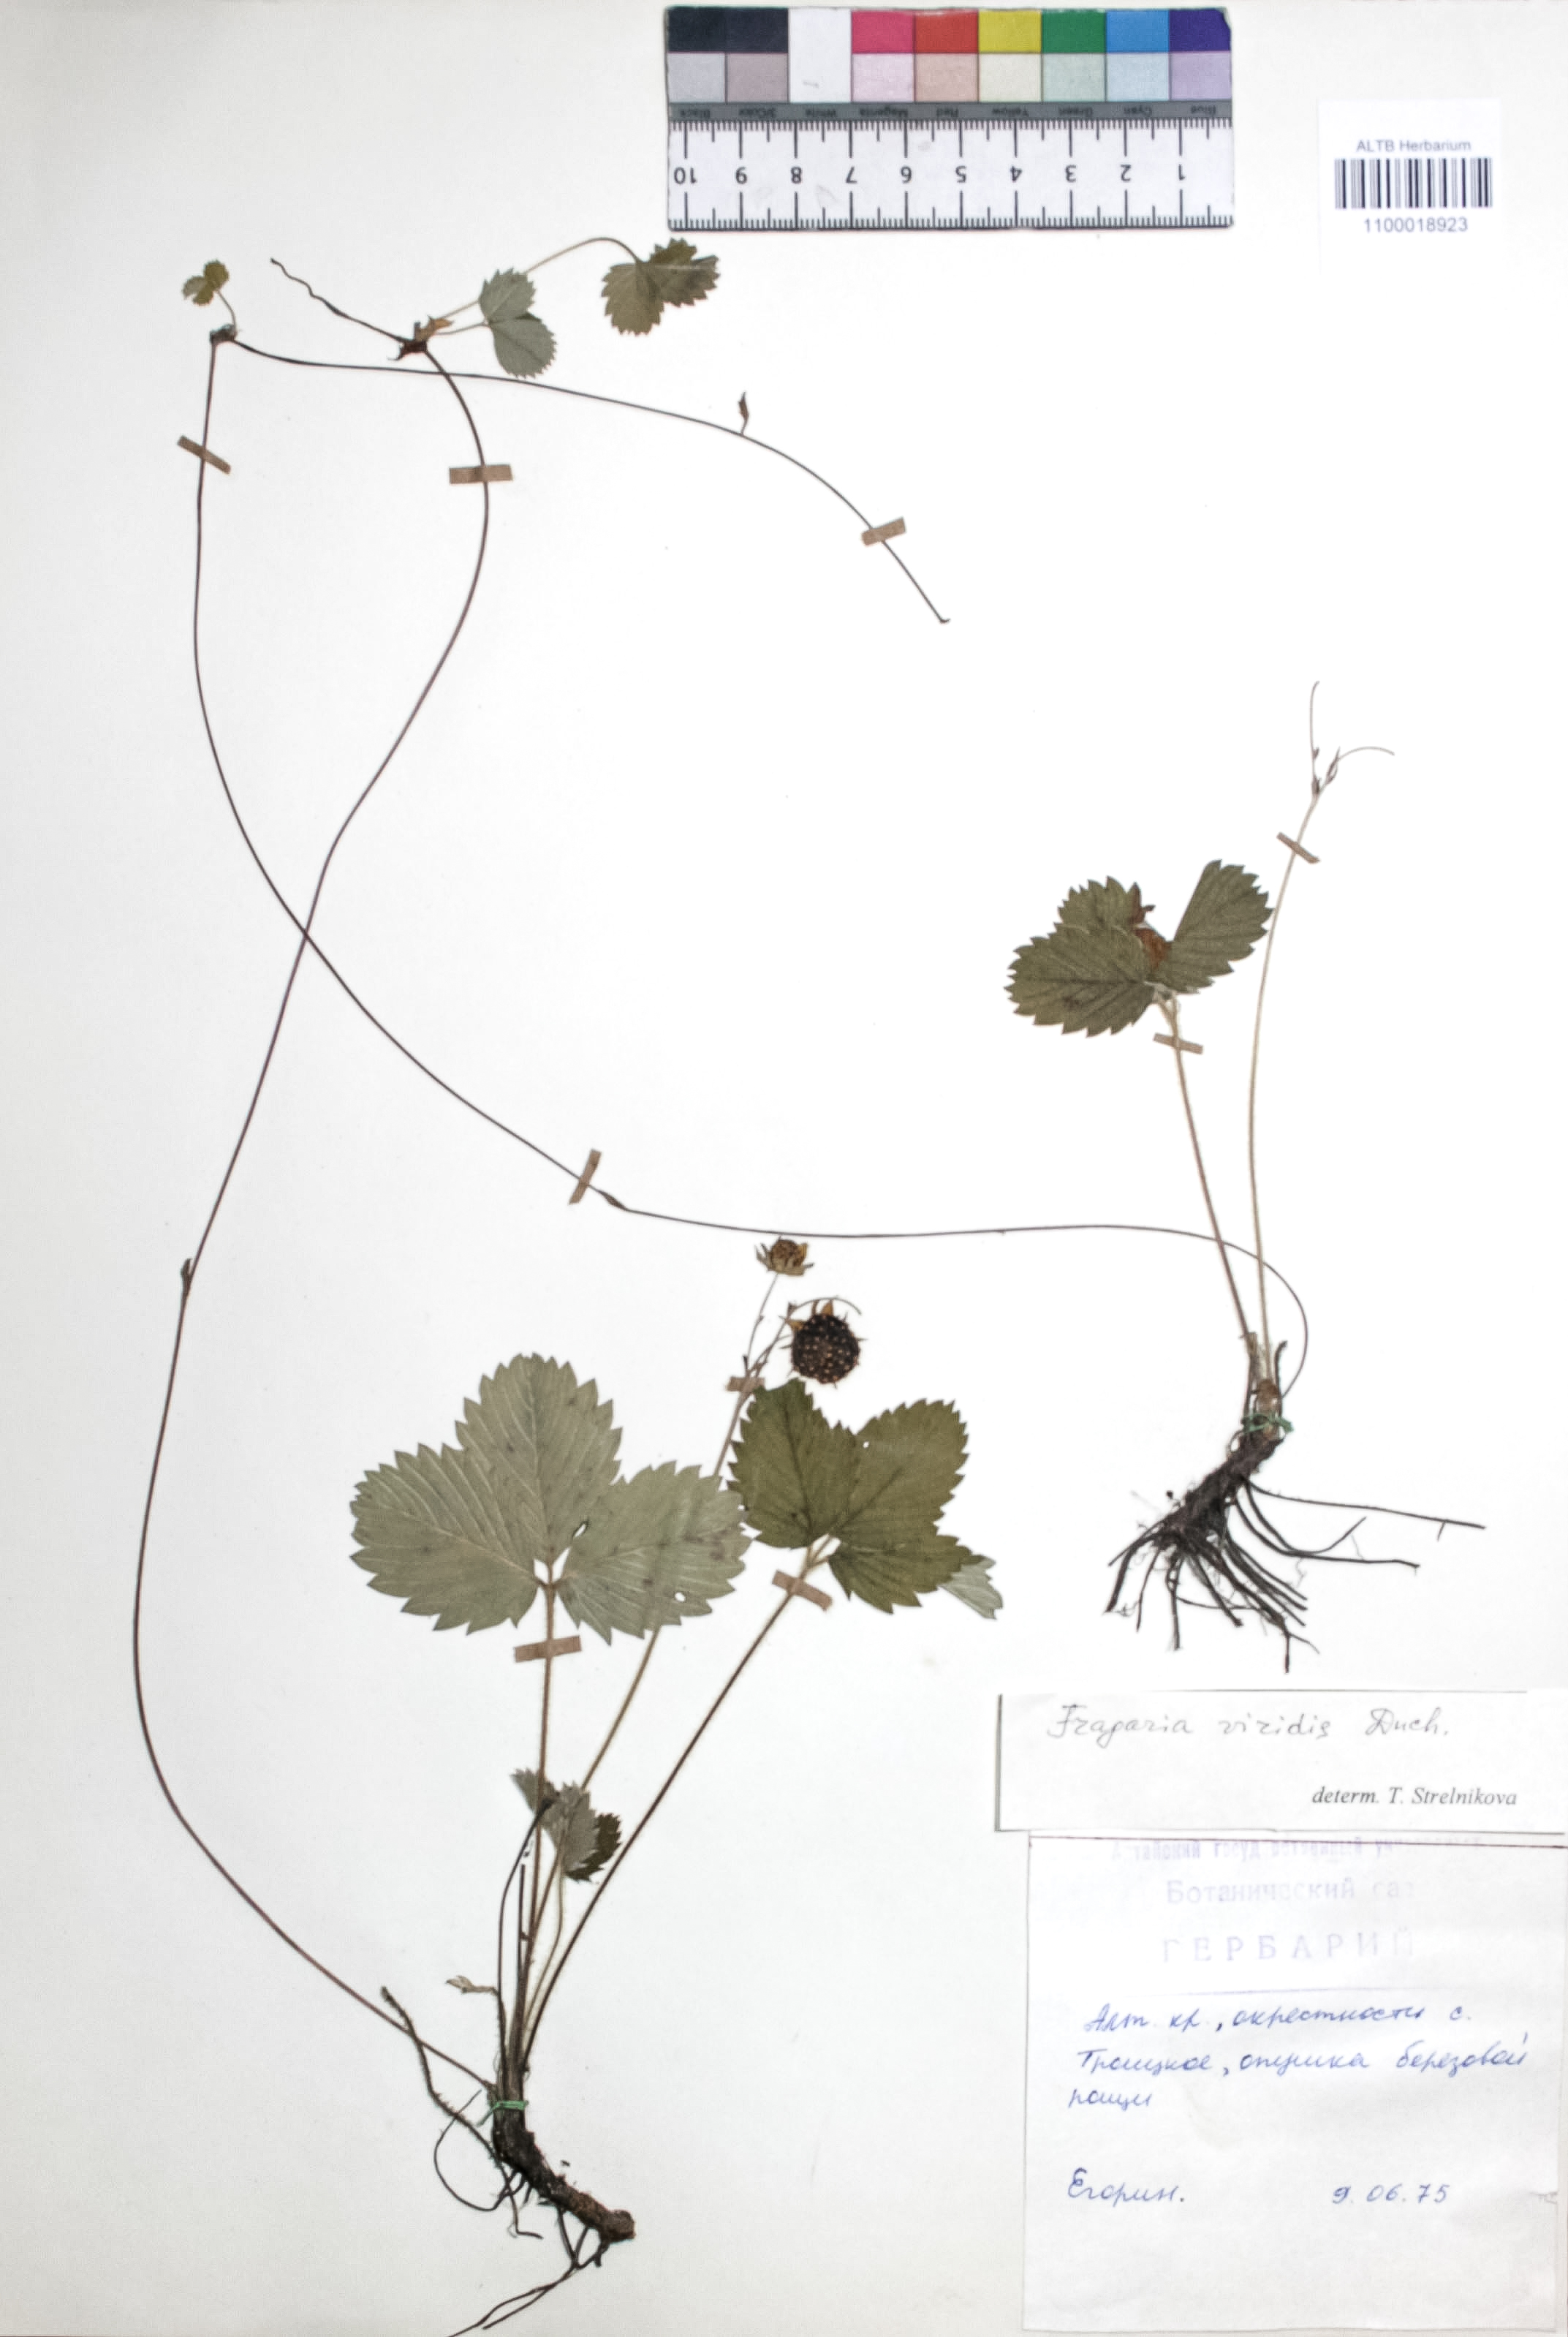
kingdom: Plantae
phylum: Tracheophyta
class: Magnoliopsida
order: Rosales
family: Rosaceae
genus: Geum
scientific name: Geum rivale
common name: Water avens
